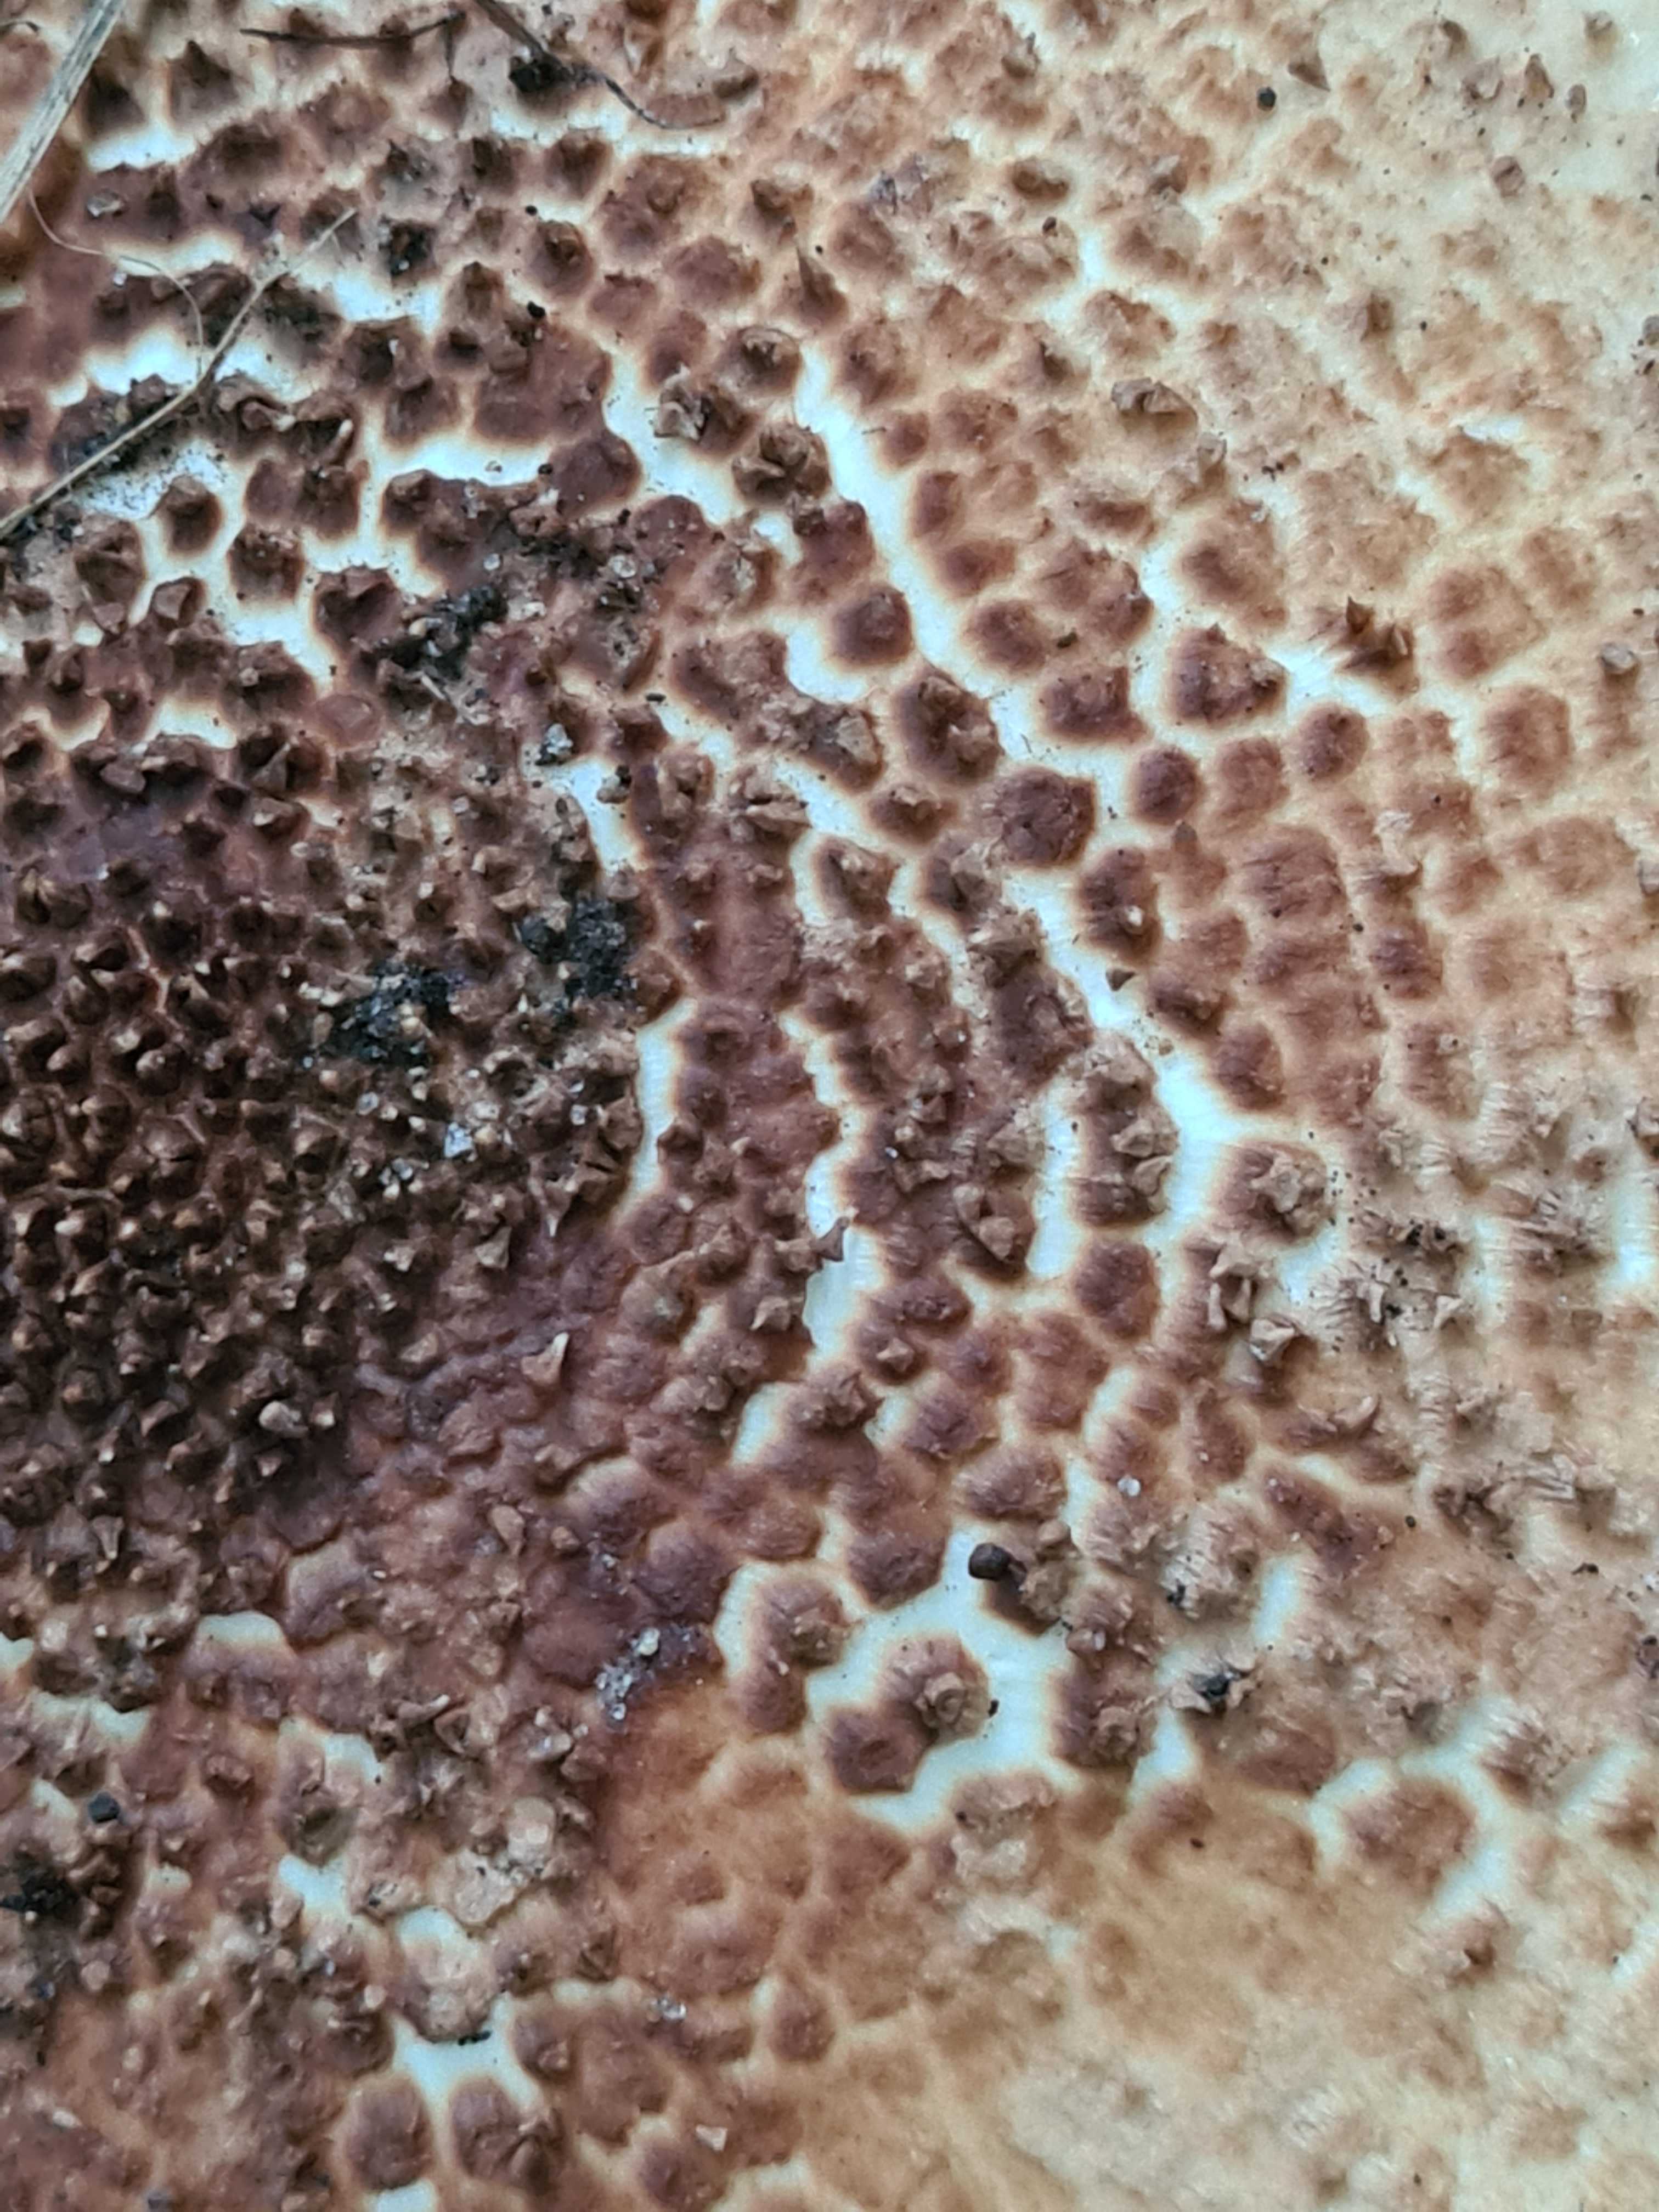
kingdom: Fungi
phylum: Basidiomycota
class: Agaricomycetes
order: Agaricales
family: Agaricaceae
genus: Echinoderma
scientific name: Echinoderma asperum
